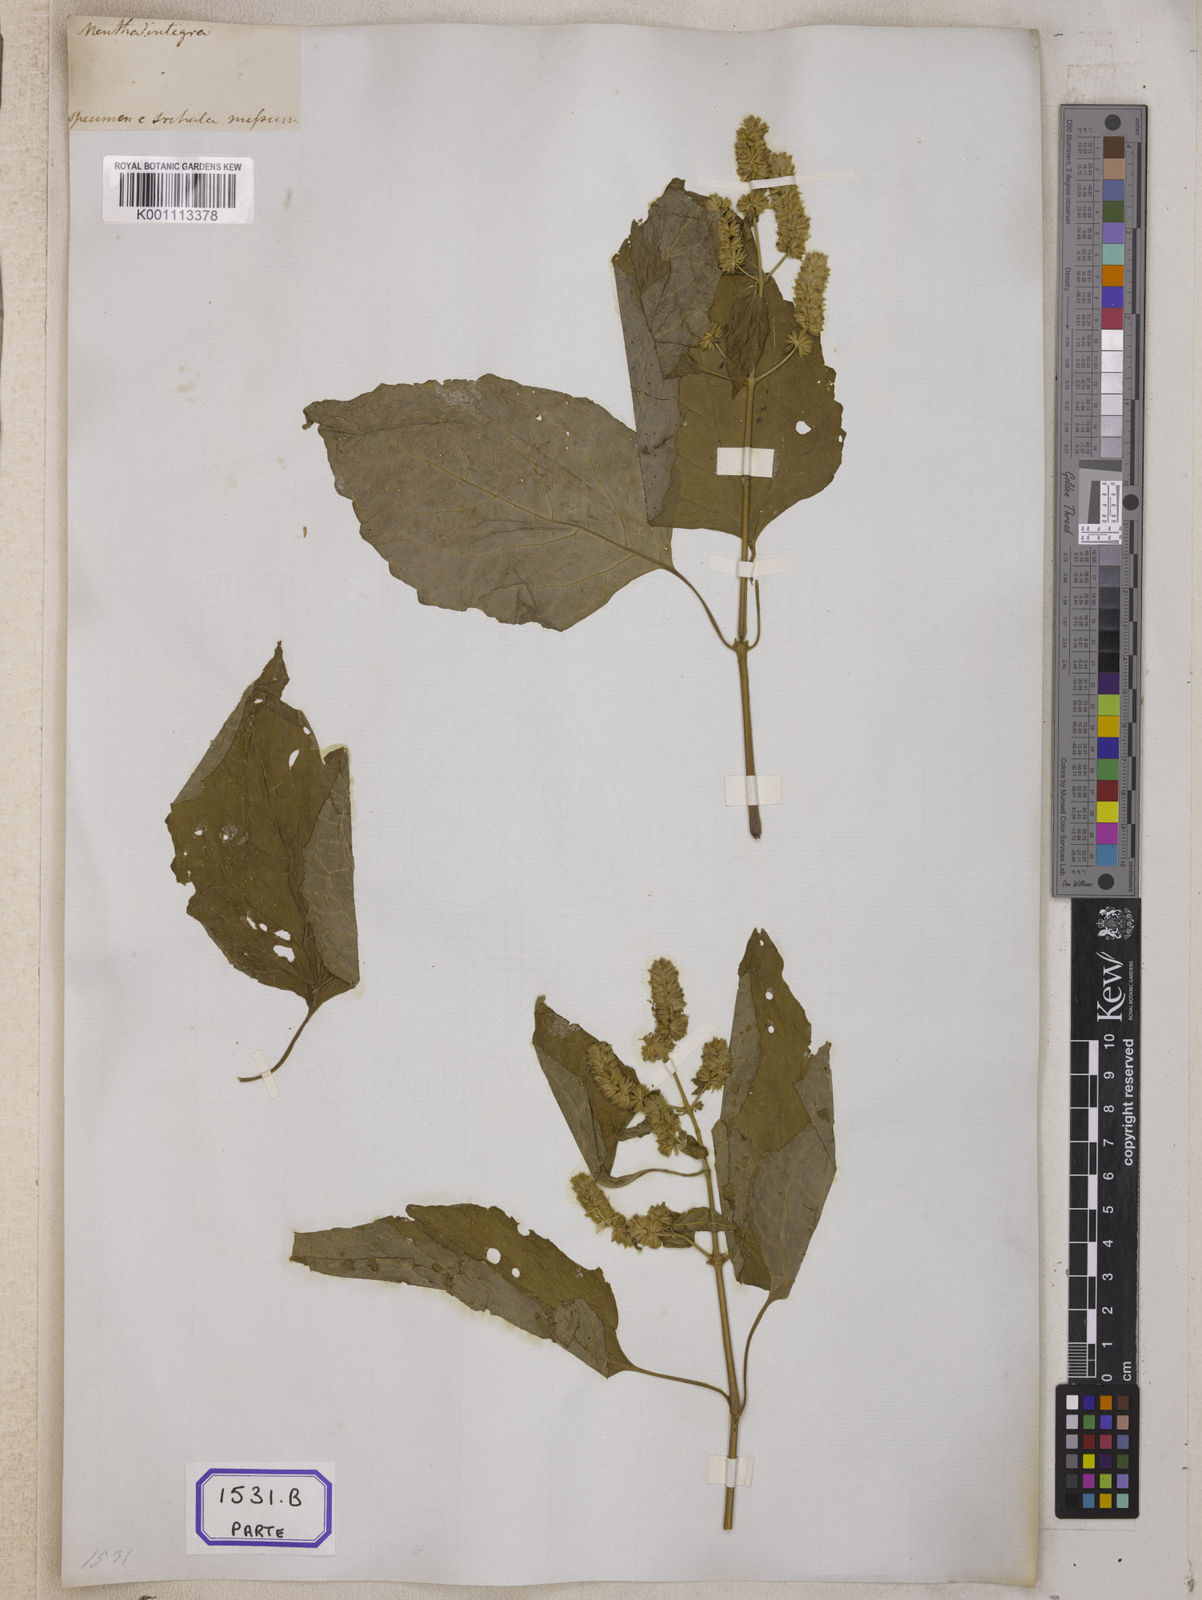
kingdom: Plantae
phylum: Tracheophyta
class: Magnoliopsida
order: Lamiales
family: Lamiaceae
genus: Pogostemon
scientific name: Pogostemon parviflorus
